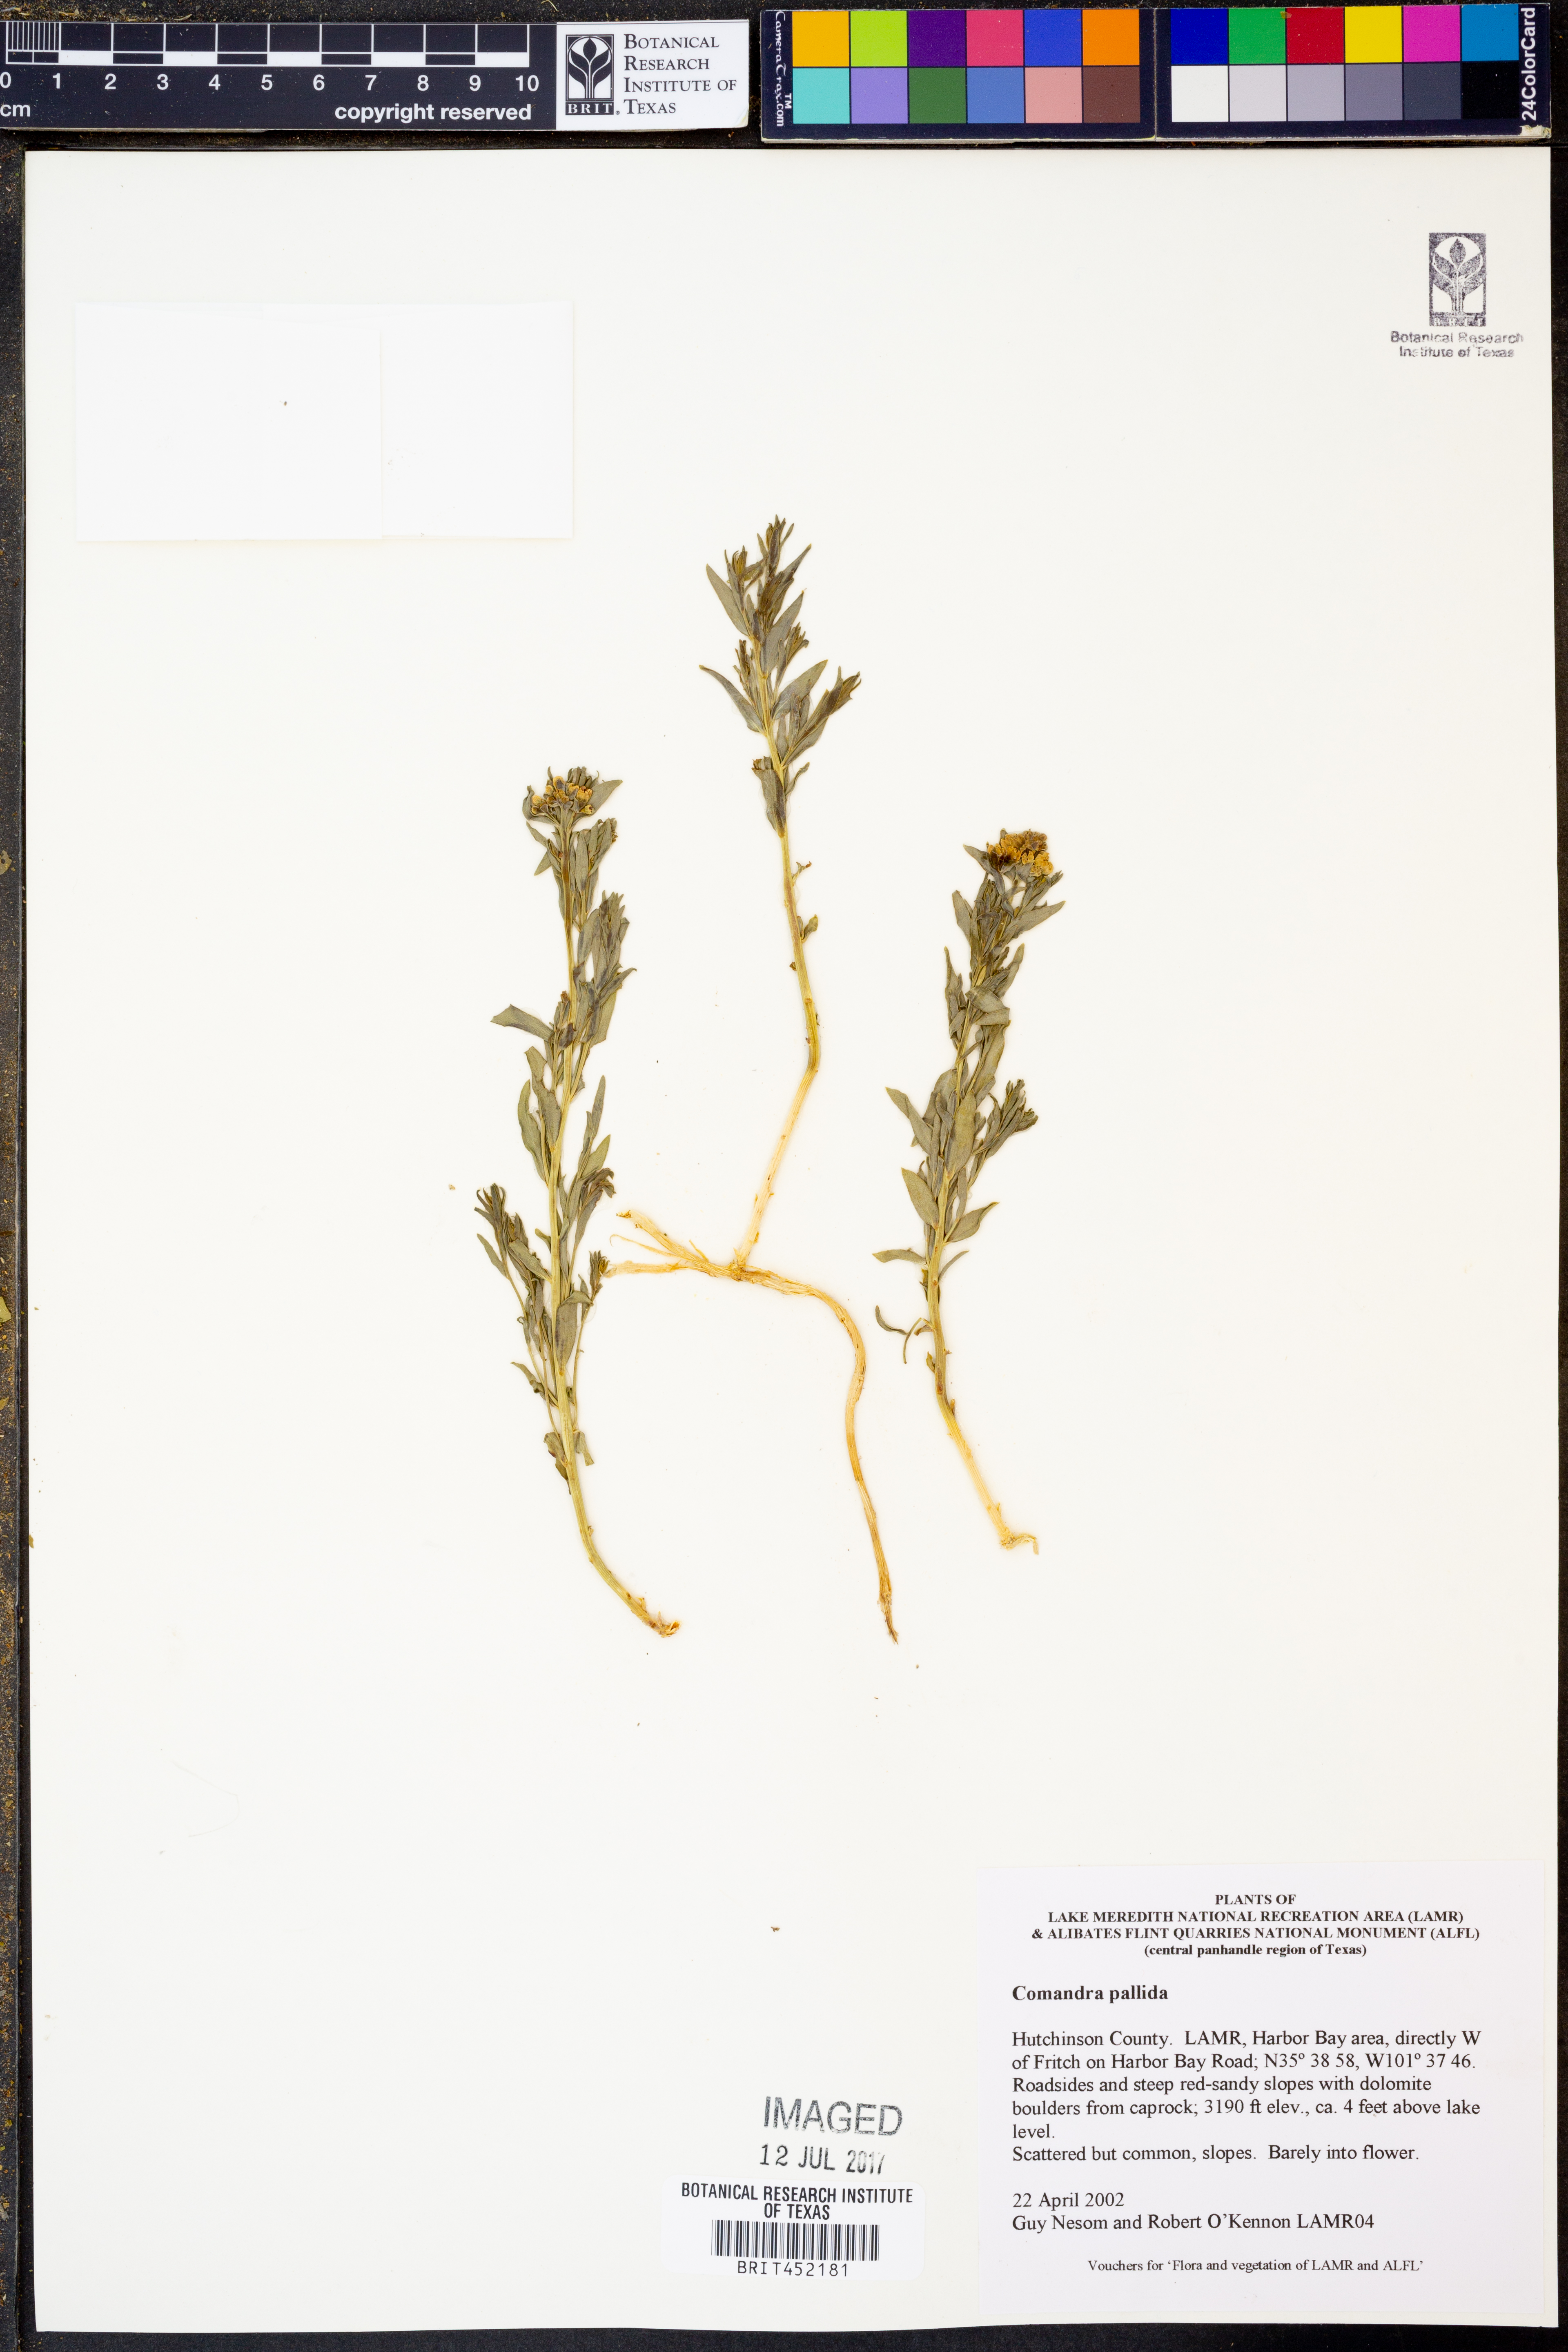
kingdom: Plantae
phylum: Tracheophyta
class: Magnoliopsida
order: Santalales
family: Comandraceae
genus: Comandra
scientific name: Comandra umbellata
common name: Bastard toadflax
